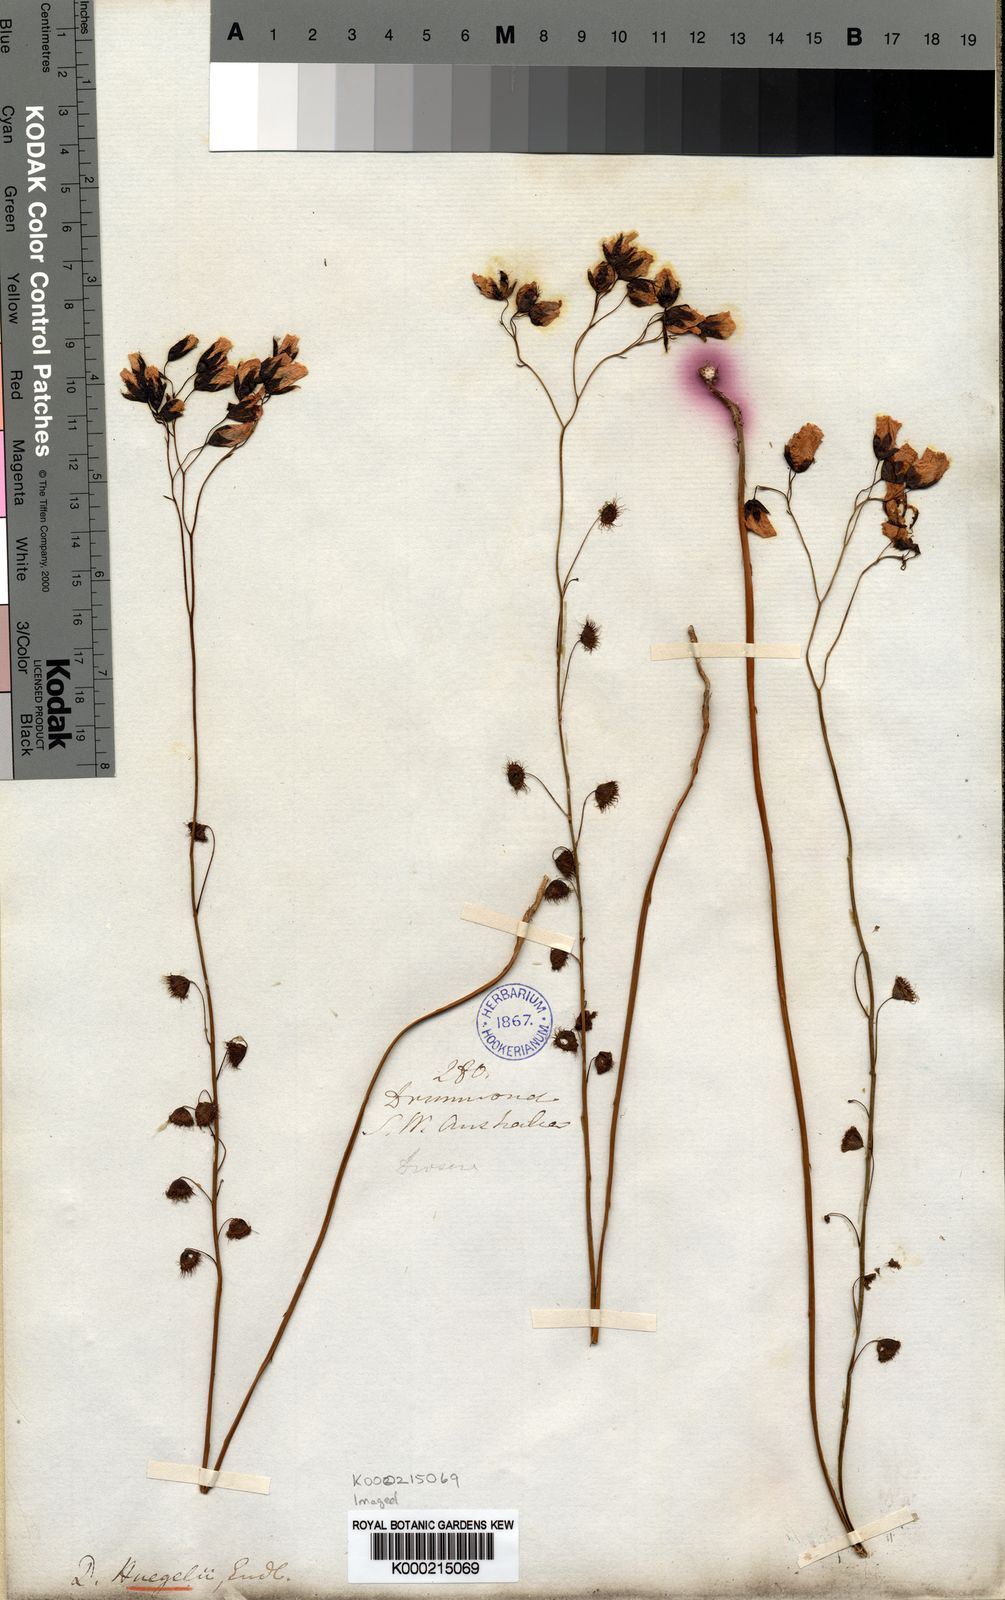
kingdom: Plantae
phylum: Tracheophyta
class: Magnoliopsida
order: Caryophyllales
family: Droseraceae
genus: Drosera
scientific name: Drosera huegelii
